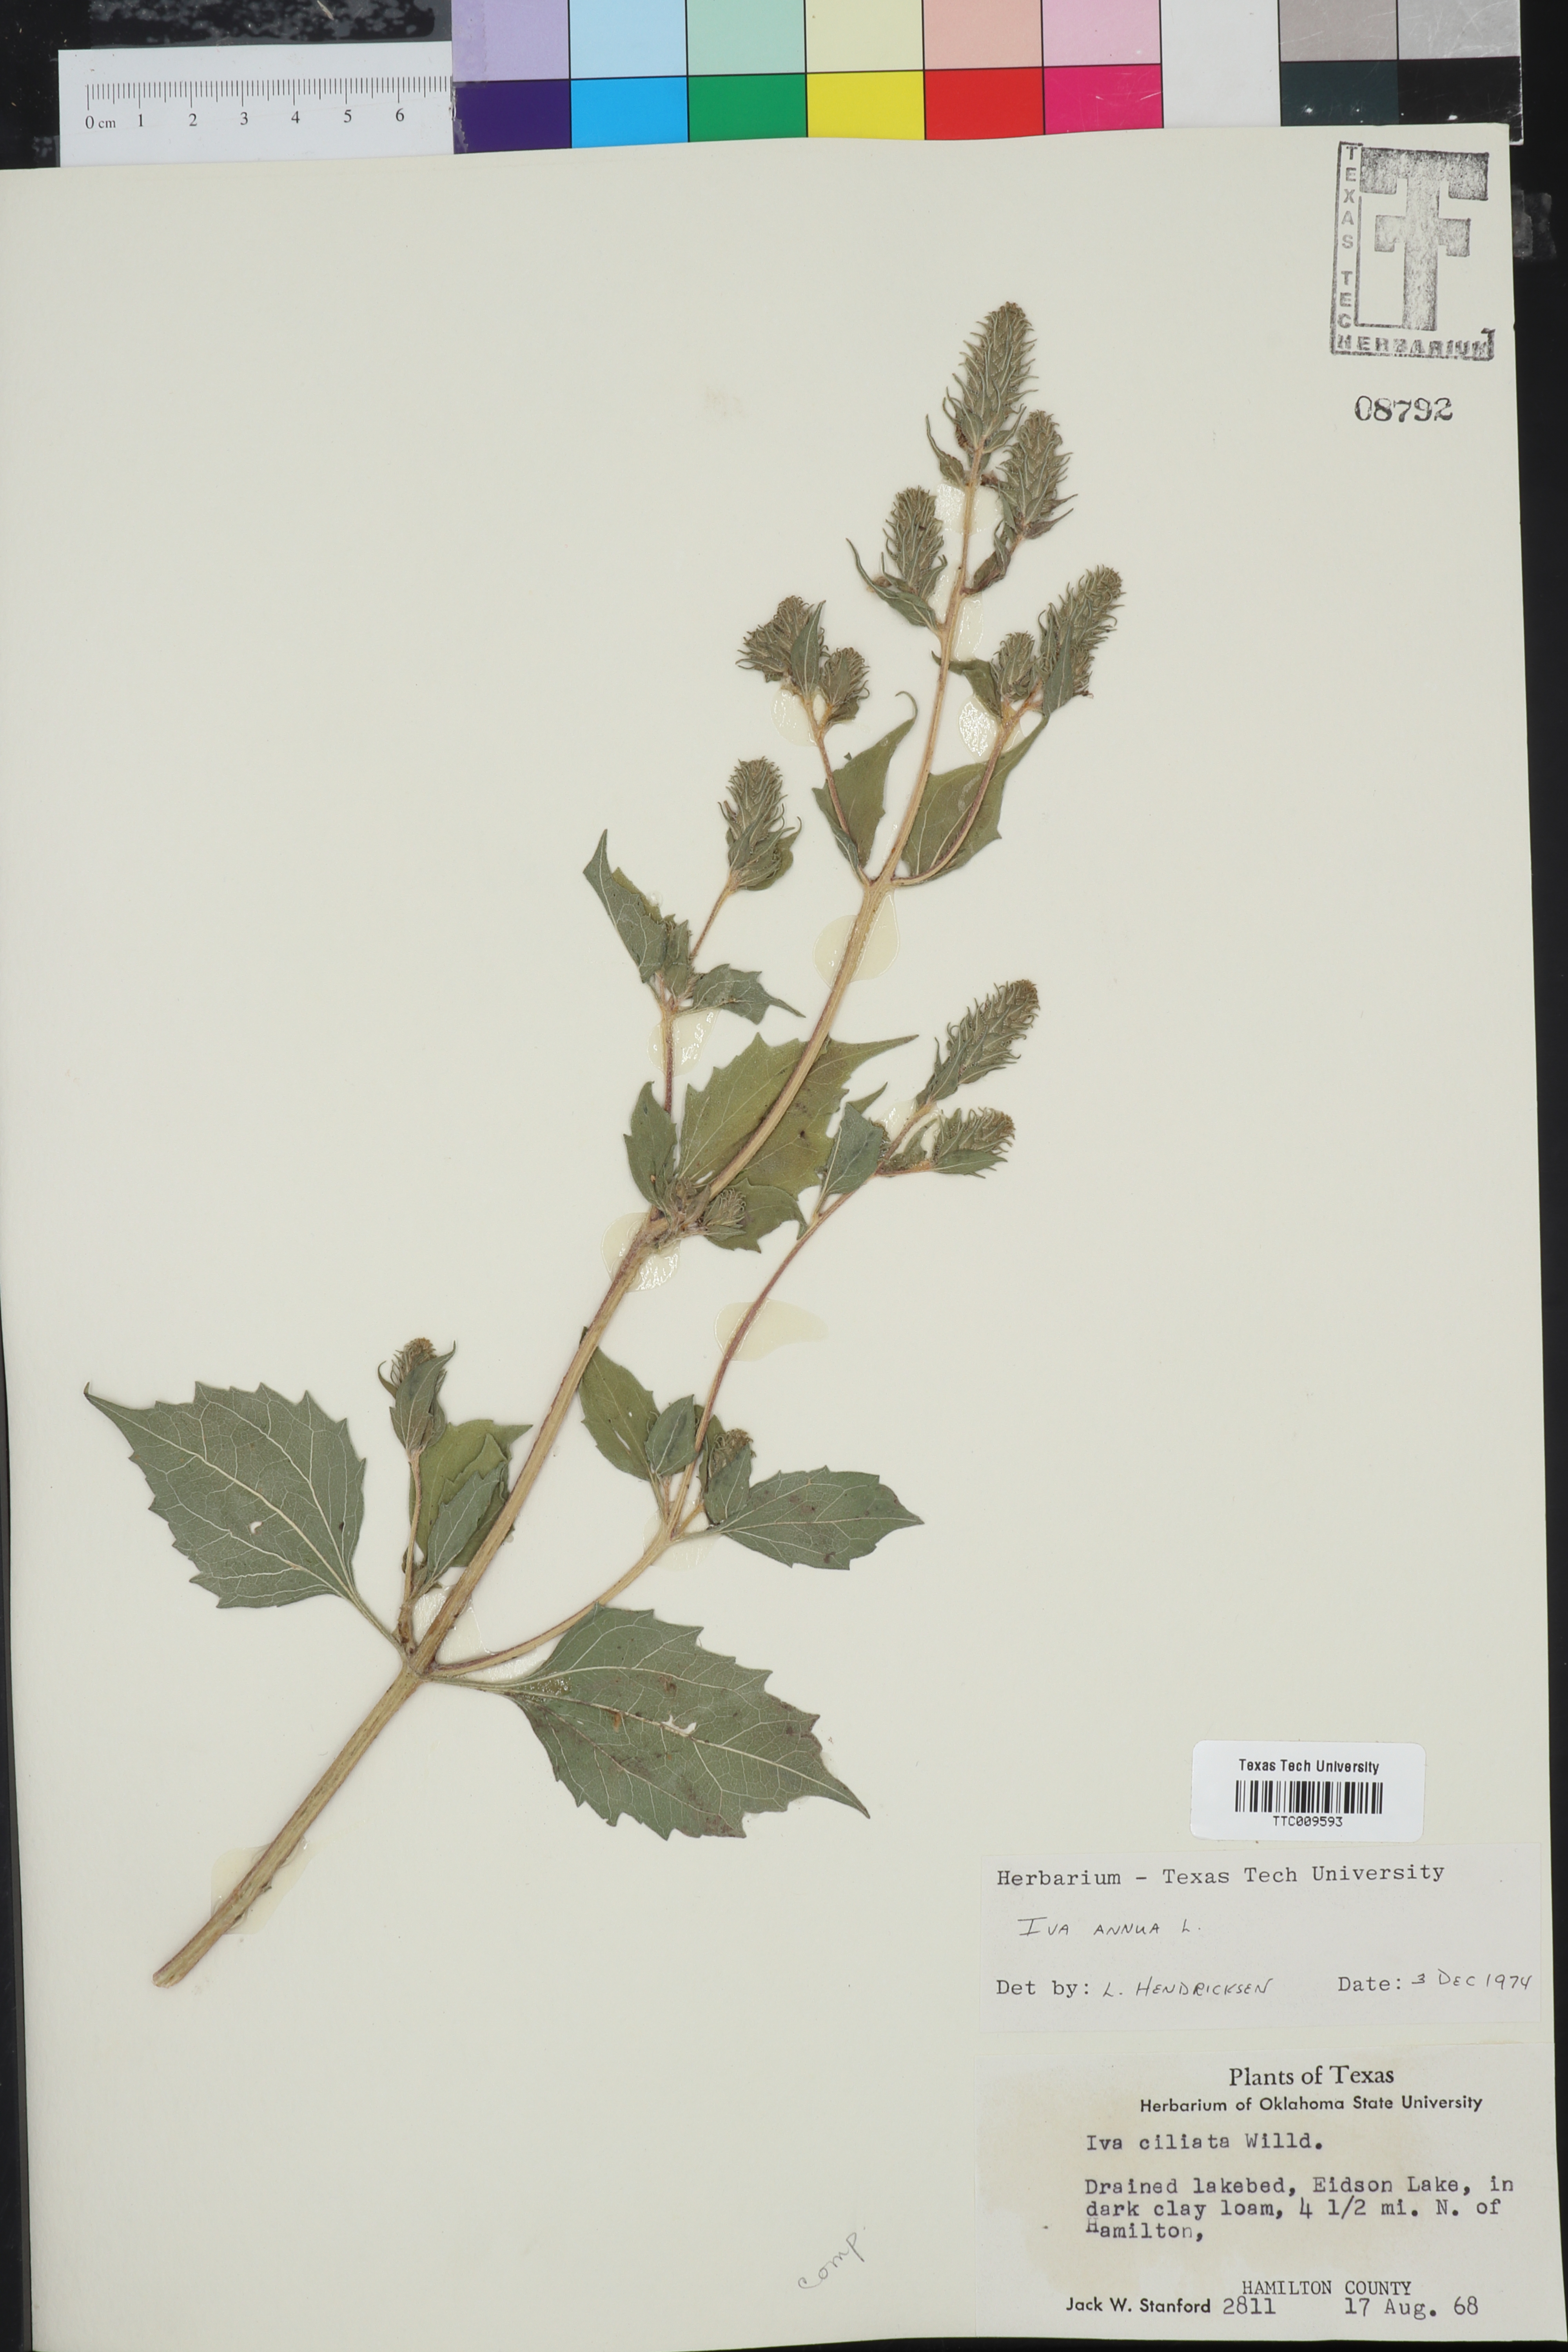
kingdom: Plantae
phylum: Tracheophyta
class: Magnoliopsida
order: Asterales
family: Asteraceae
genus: Iva
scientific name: Iva annua
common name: Marsh-elder
